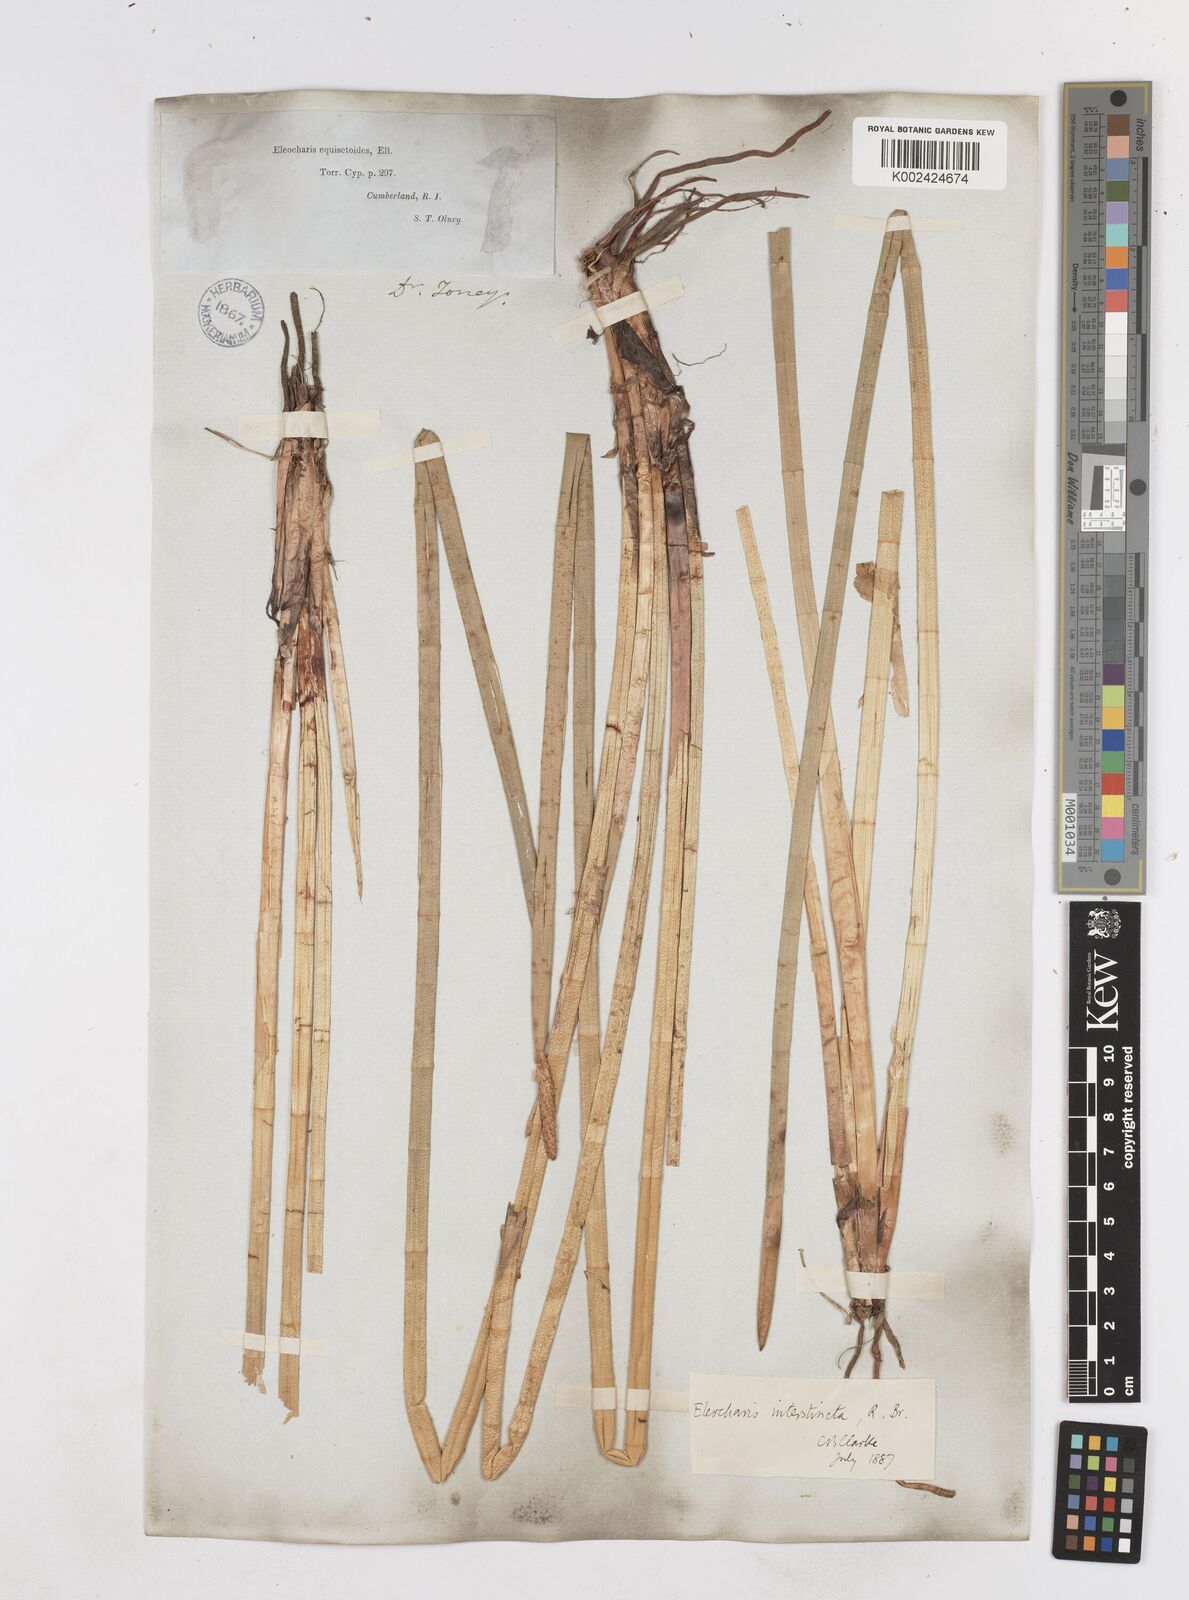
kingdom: Plantae
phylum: Tracheophyta
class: Liliopsida
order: Poales
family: Cyperaceae
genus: Eleocharis
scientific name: Eleocharis equisetoides
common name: Horsetail spike-rush
